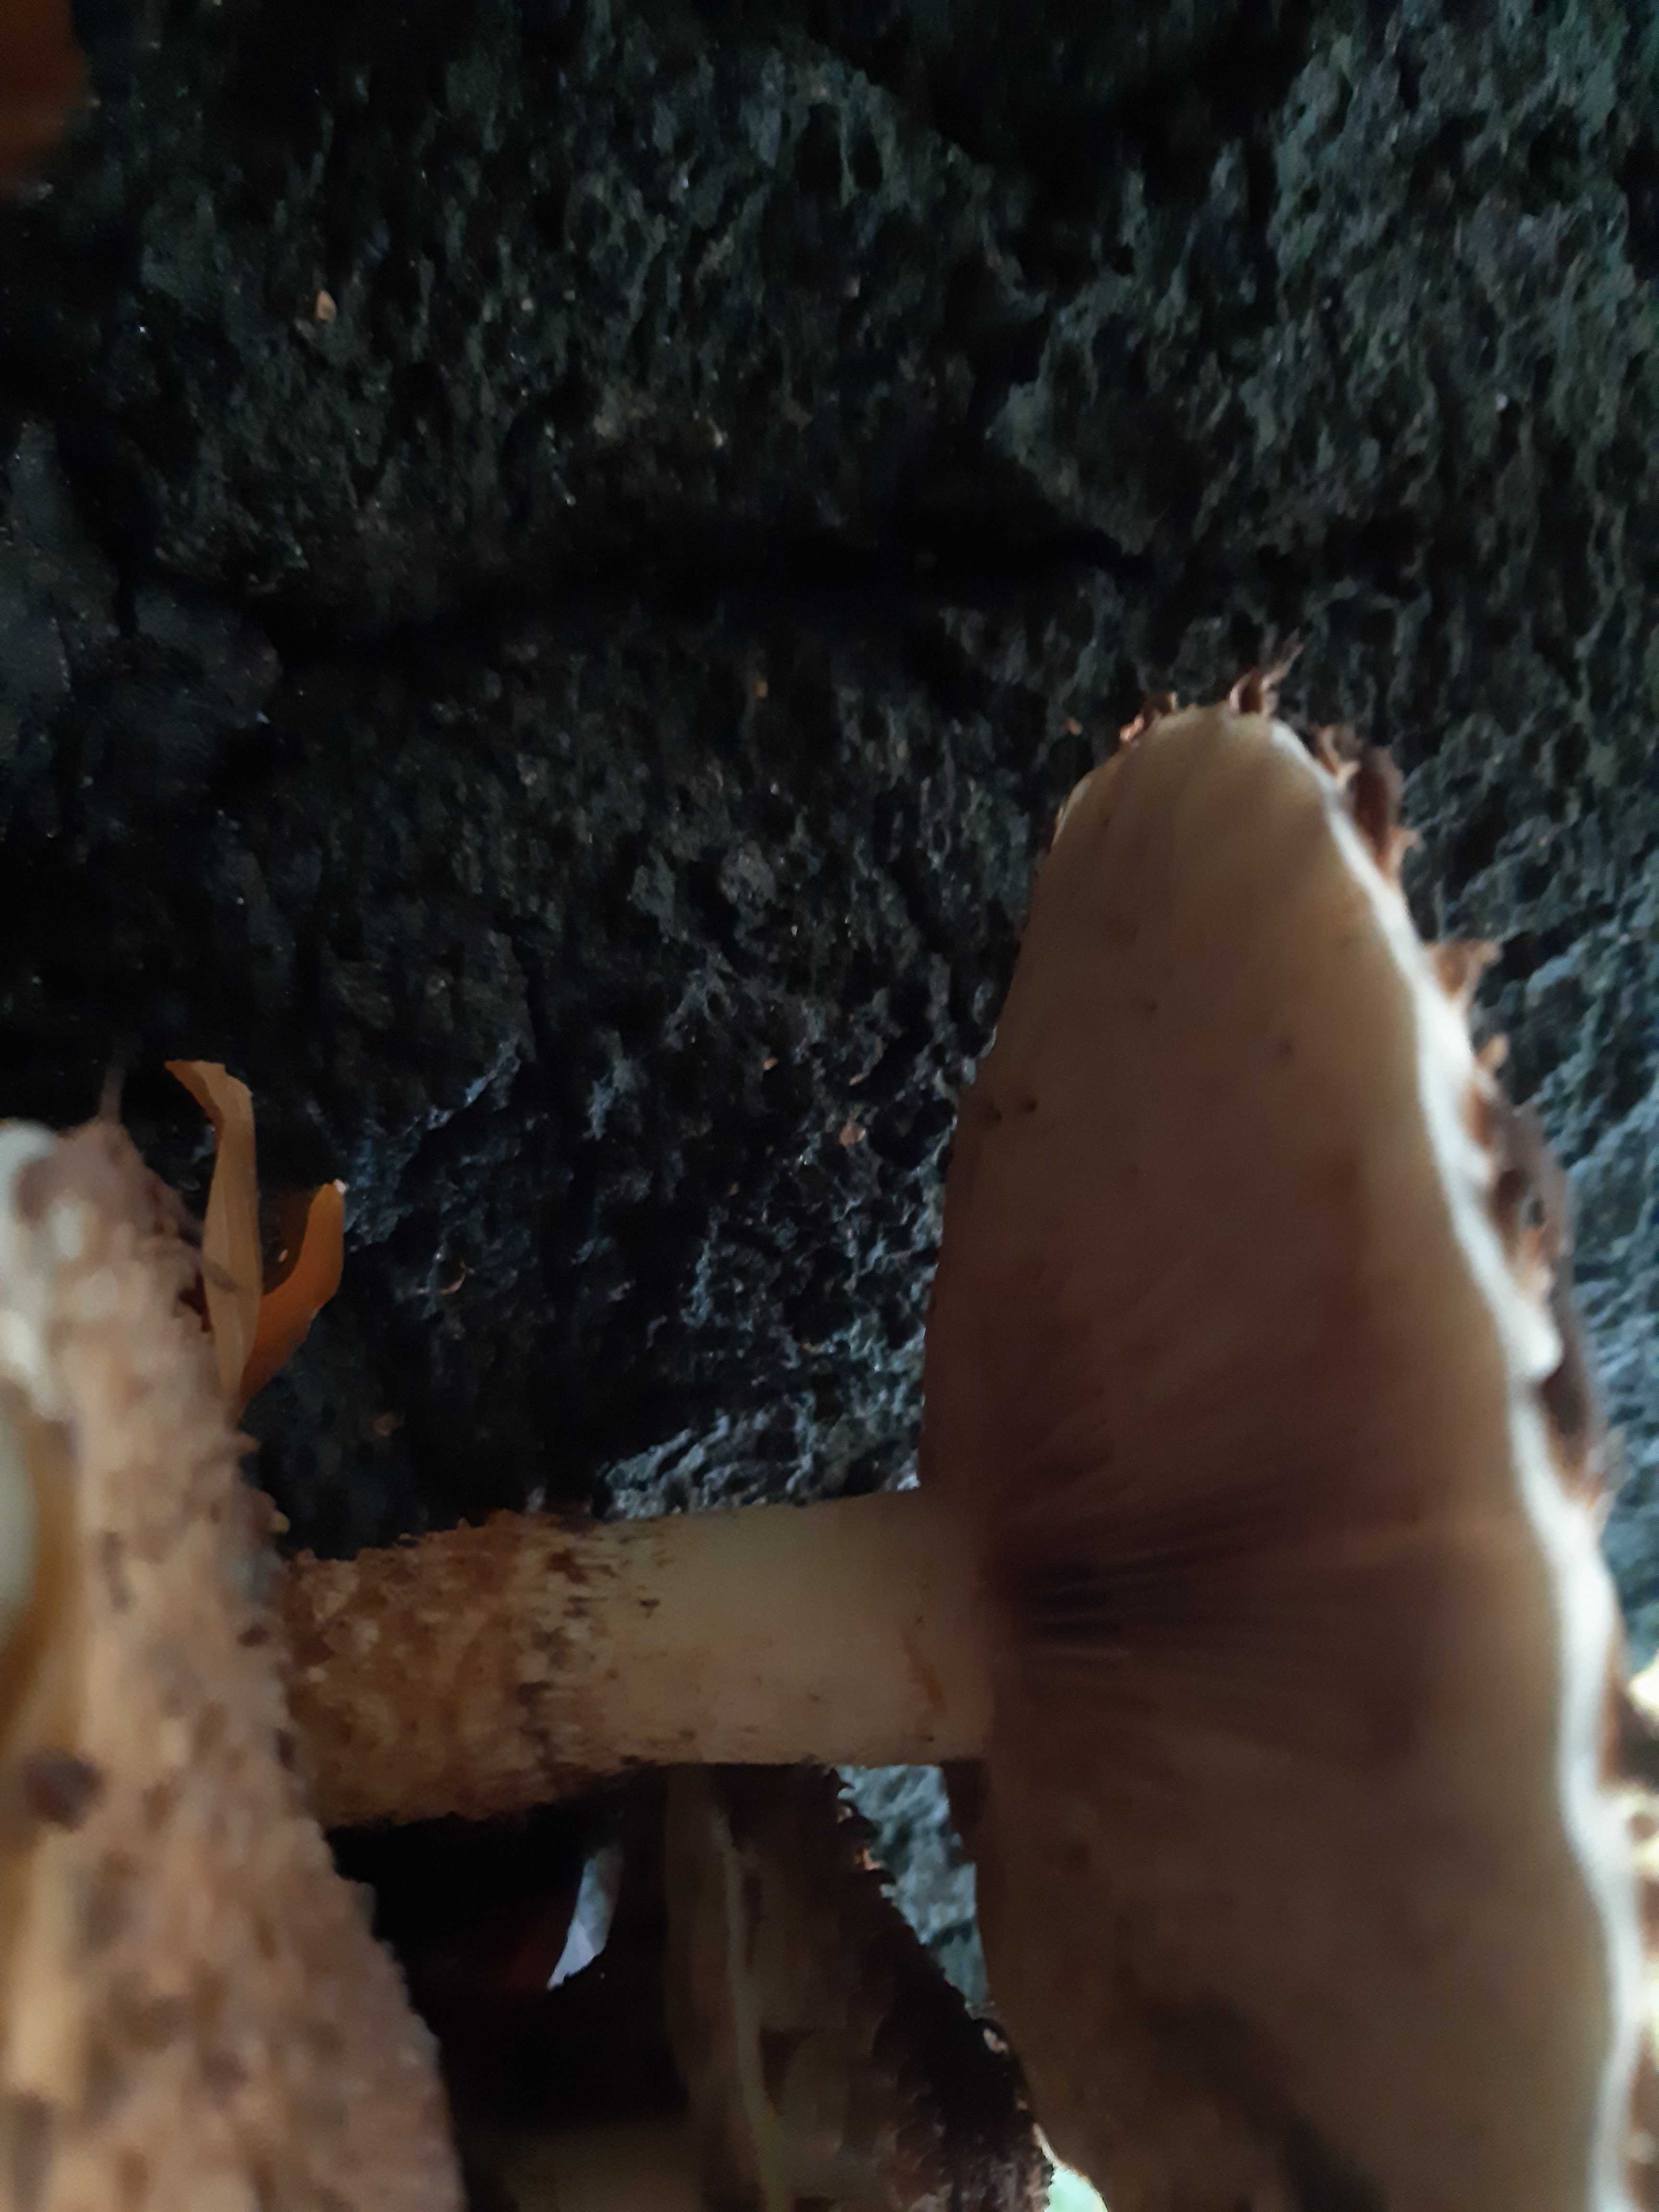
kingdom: Fungi
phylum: Basidiomycota
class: Agaricomycetes
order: Agaricales
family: Strophariaceae
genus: Pholiota
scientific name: Pholiota squarrosa
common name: krumskællet skælhat
